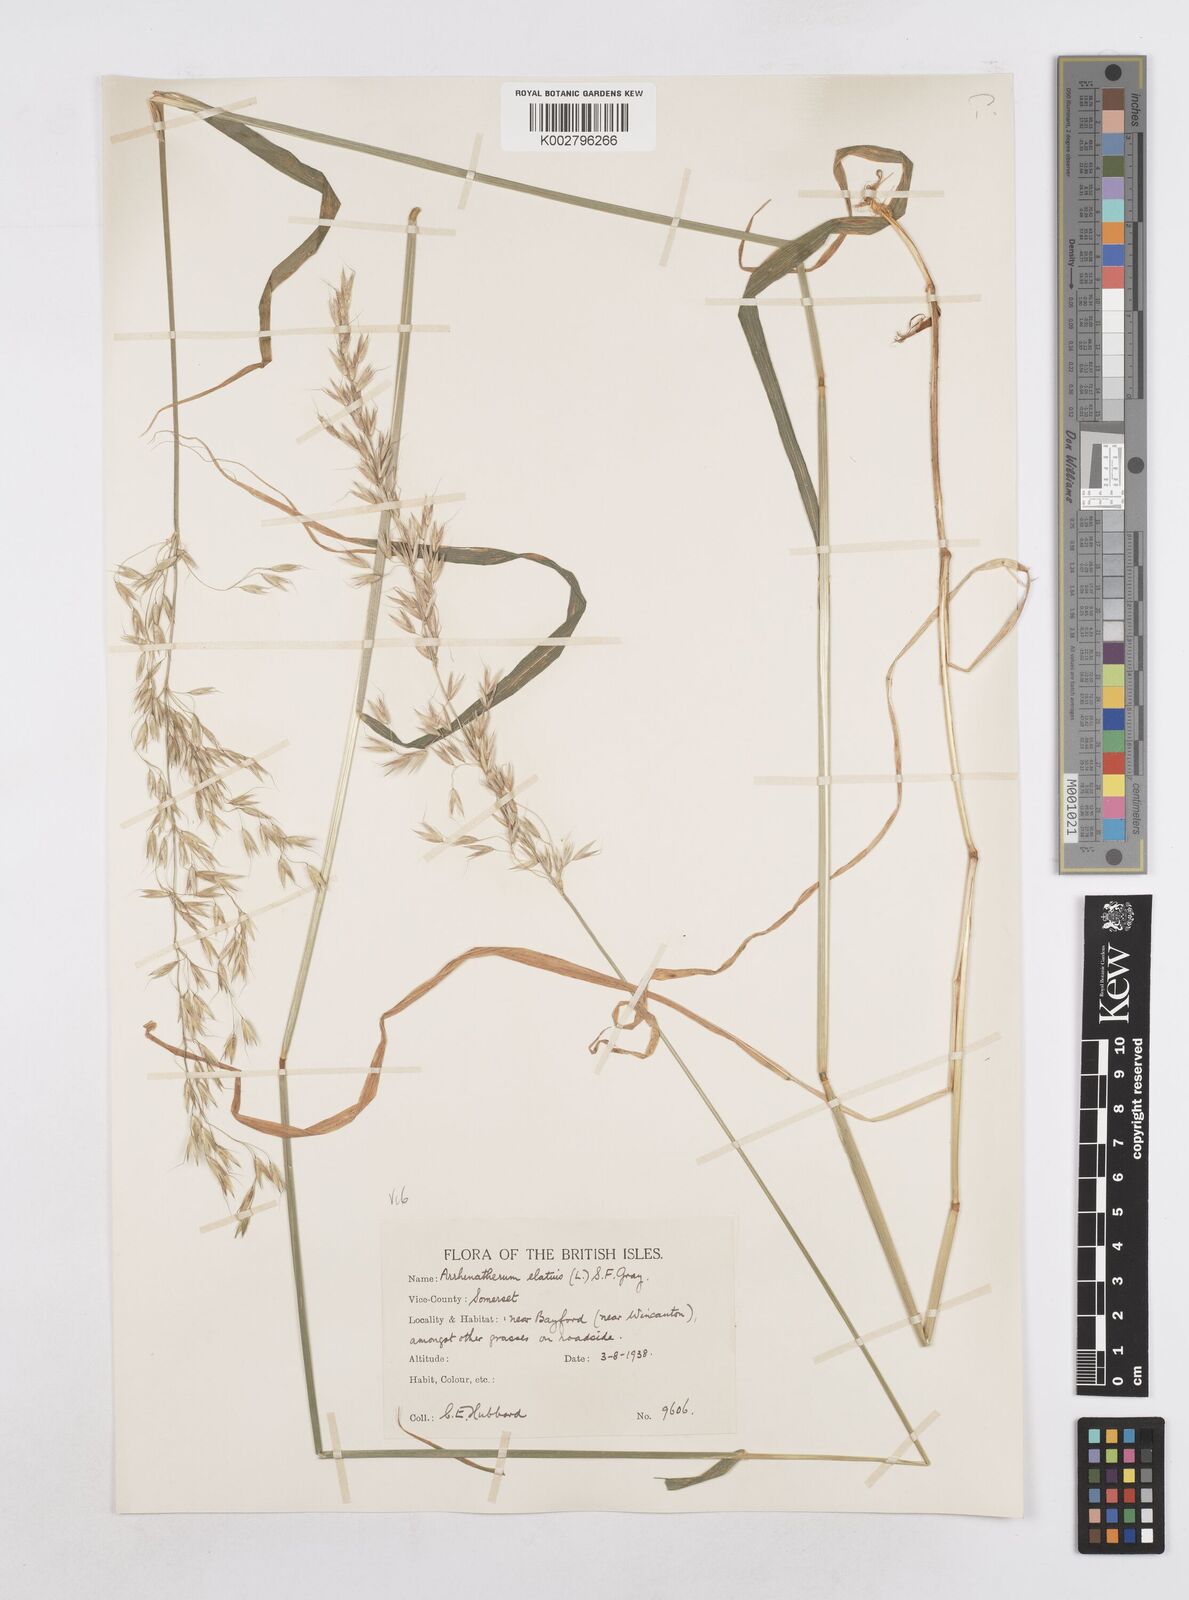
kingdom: Plantae
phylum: Tracheophyta
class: Liliopsida
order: Poales
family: Poaceae
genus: Arrhenatherum
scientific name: Arrhenatherum elatius
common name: Tall oatgrass
